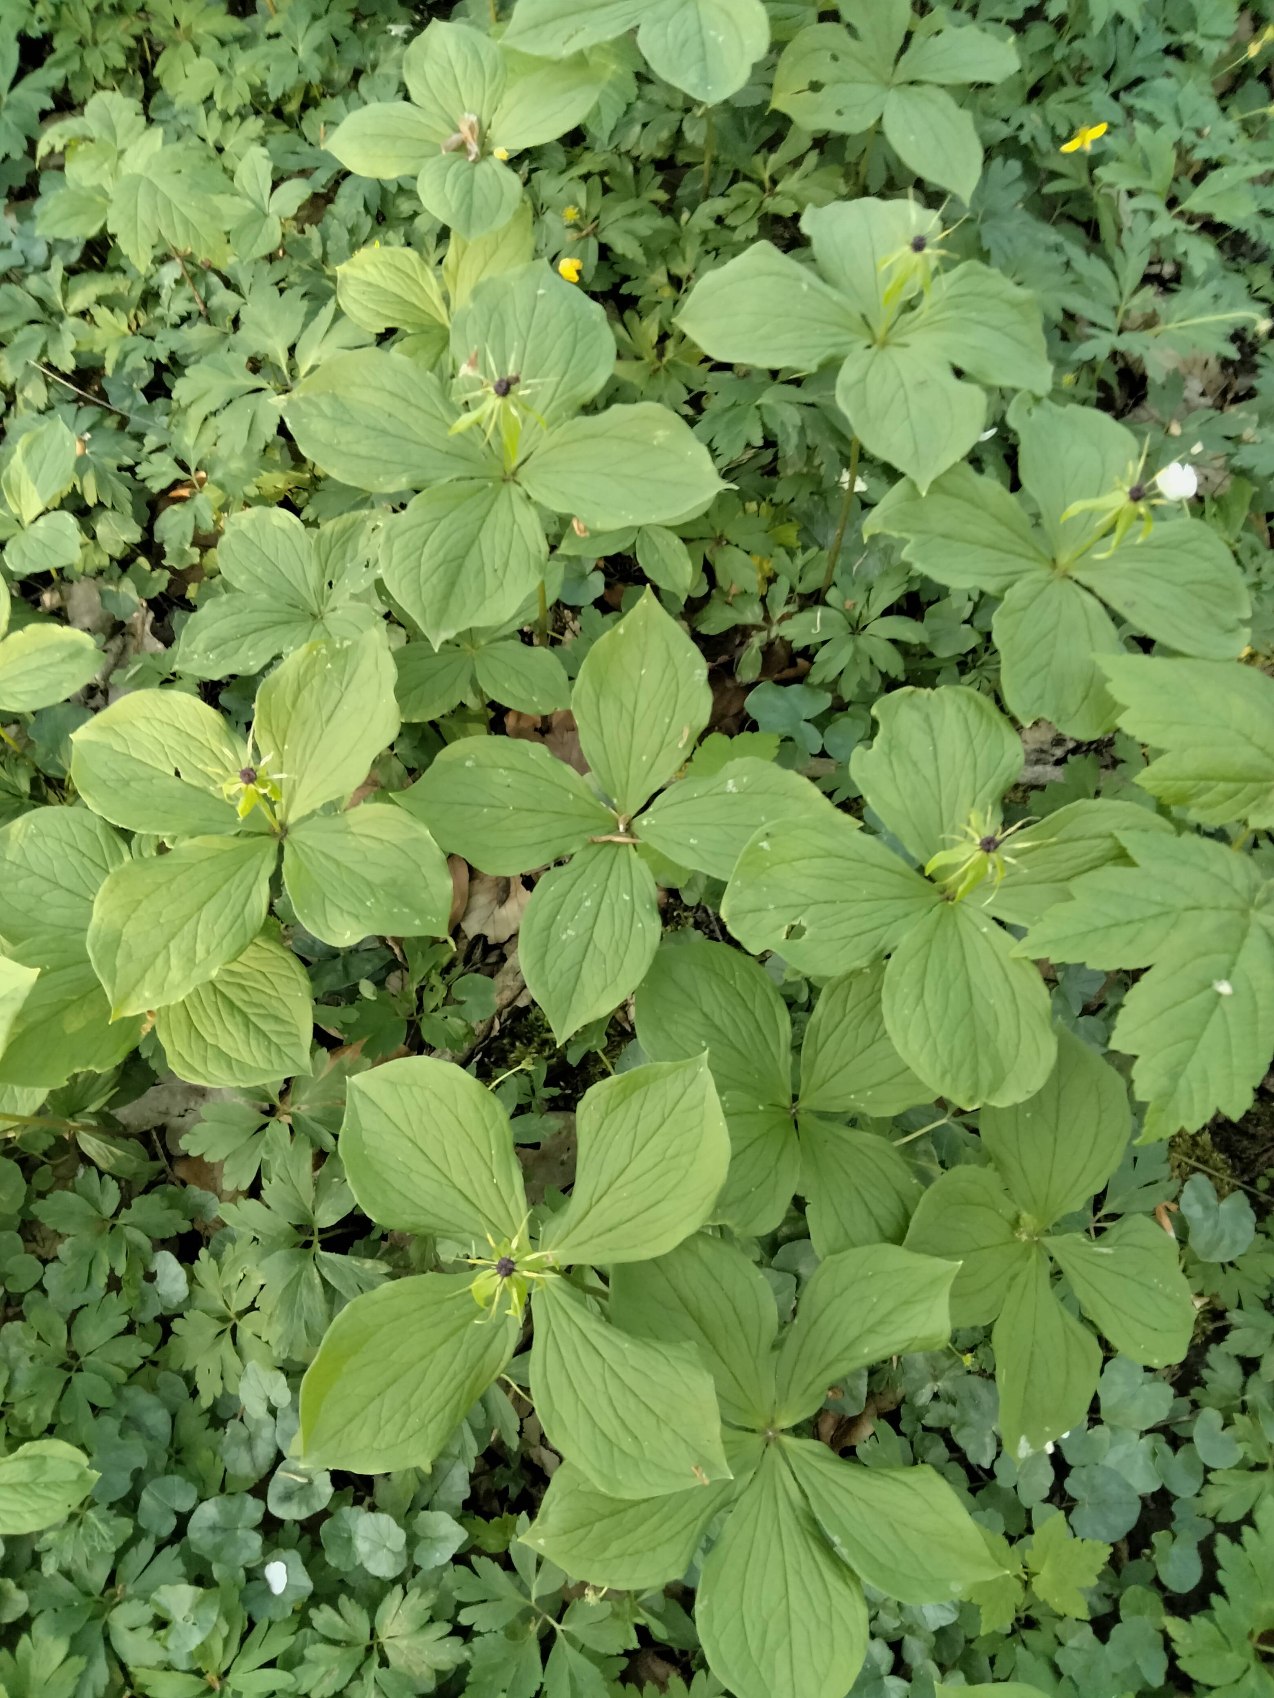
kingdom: Plantae
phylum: Tracheophyta
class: Liliopsida
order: Liliales
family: Melanthiaceae
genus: Paris
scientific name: Paris quadrifolia
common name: Firblad
